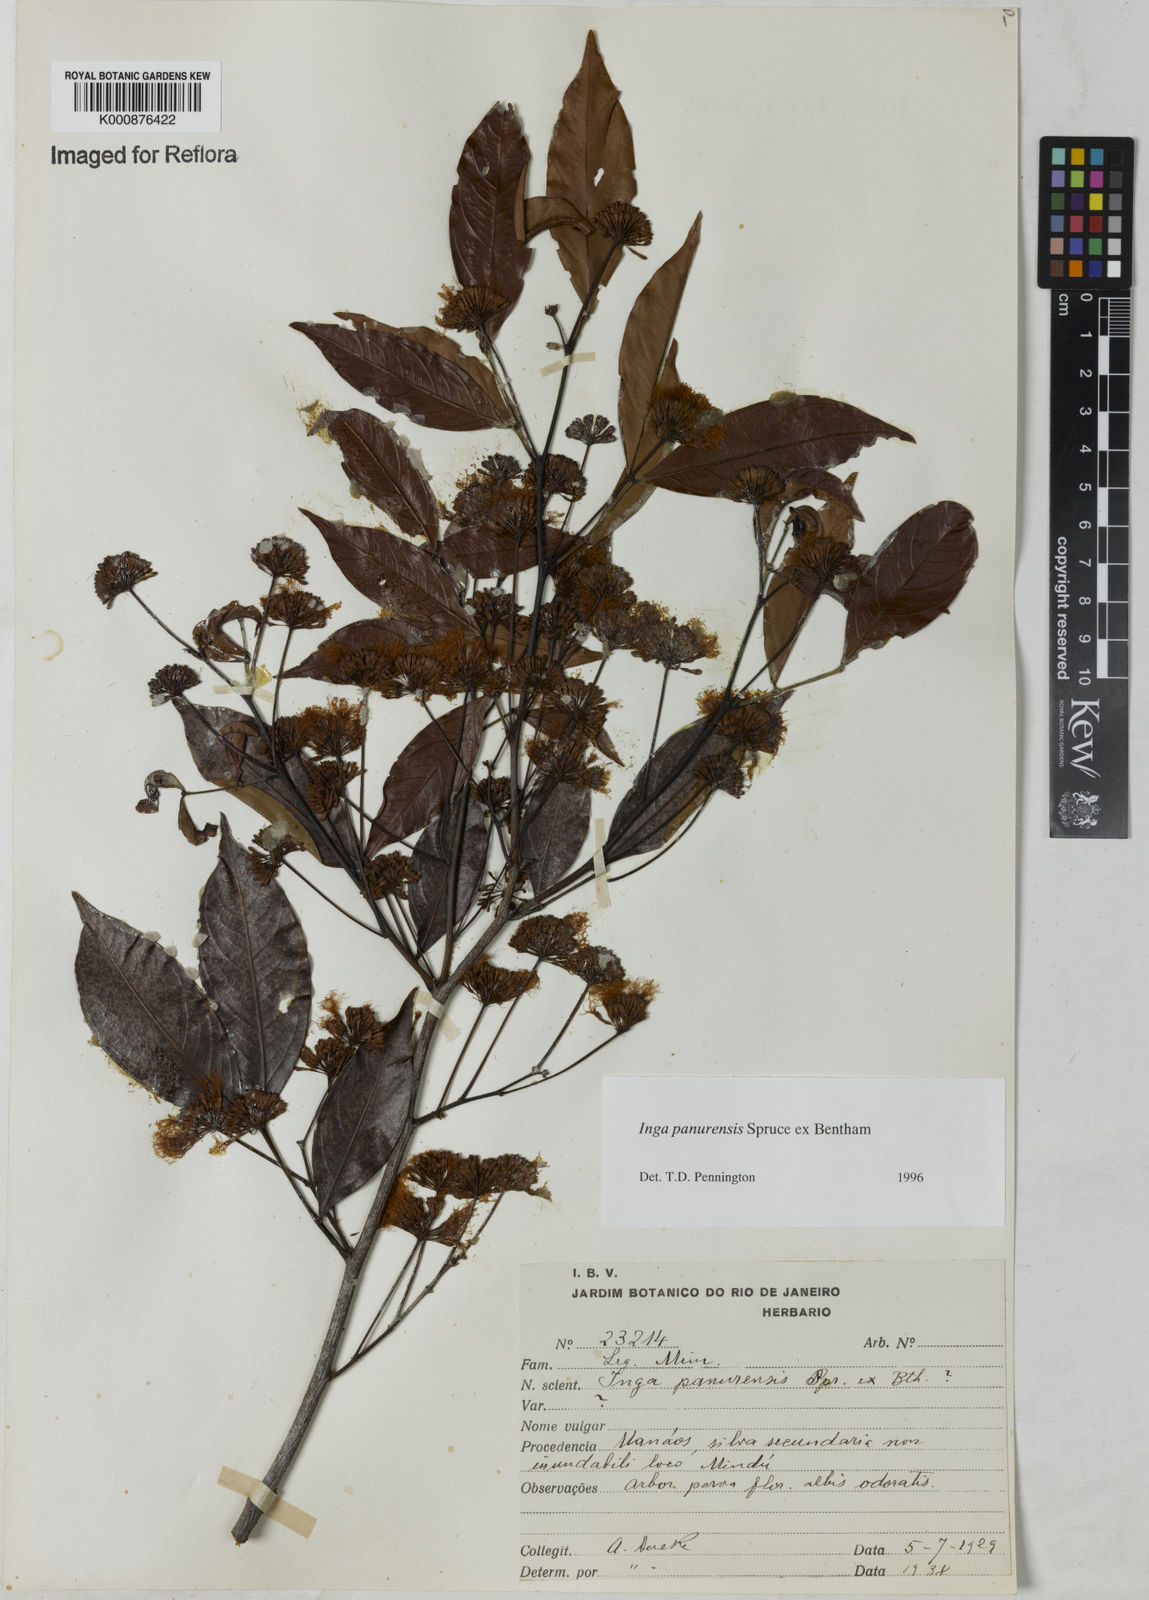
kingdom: Plantae
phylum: Tracheophyta
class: Magnoliopsida
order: Fabales
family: Fabaceae
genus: Inga
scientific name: Inga panurensis
